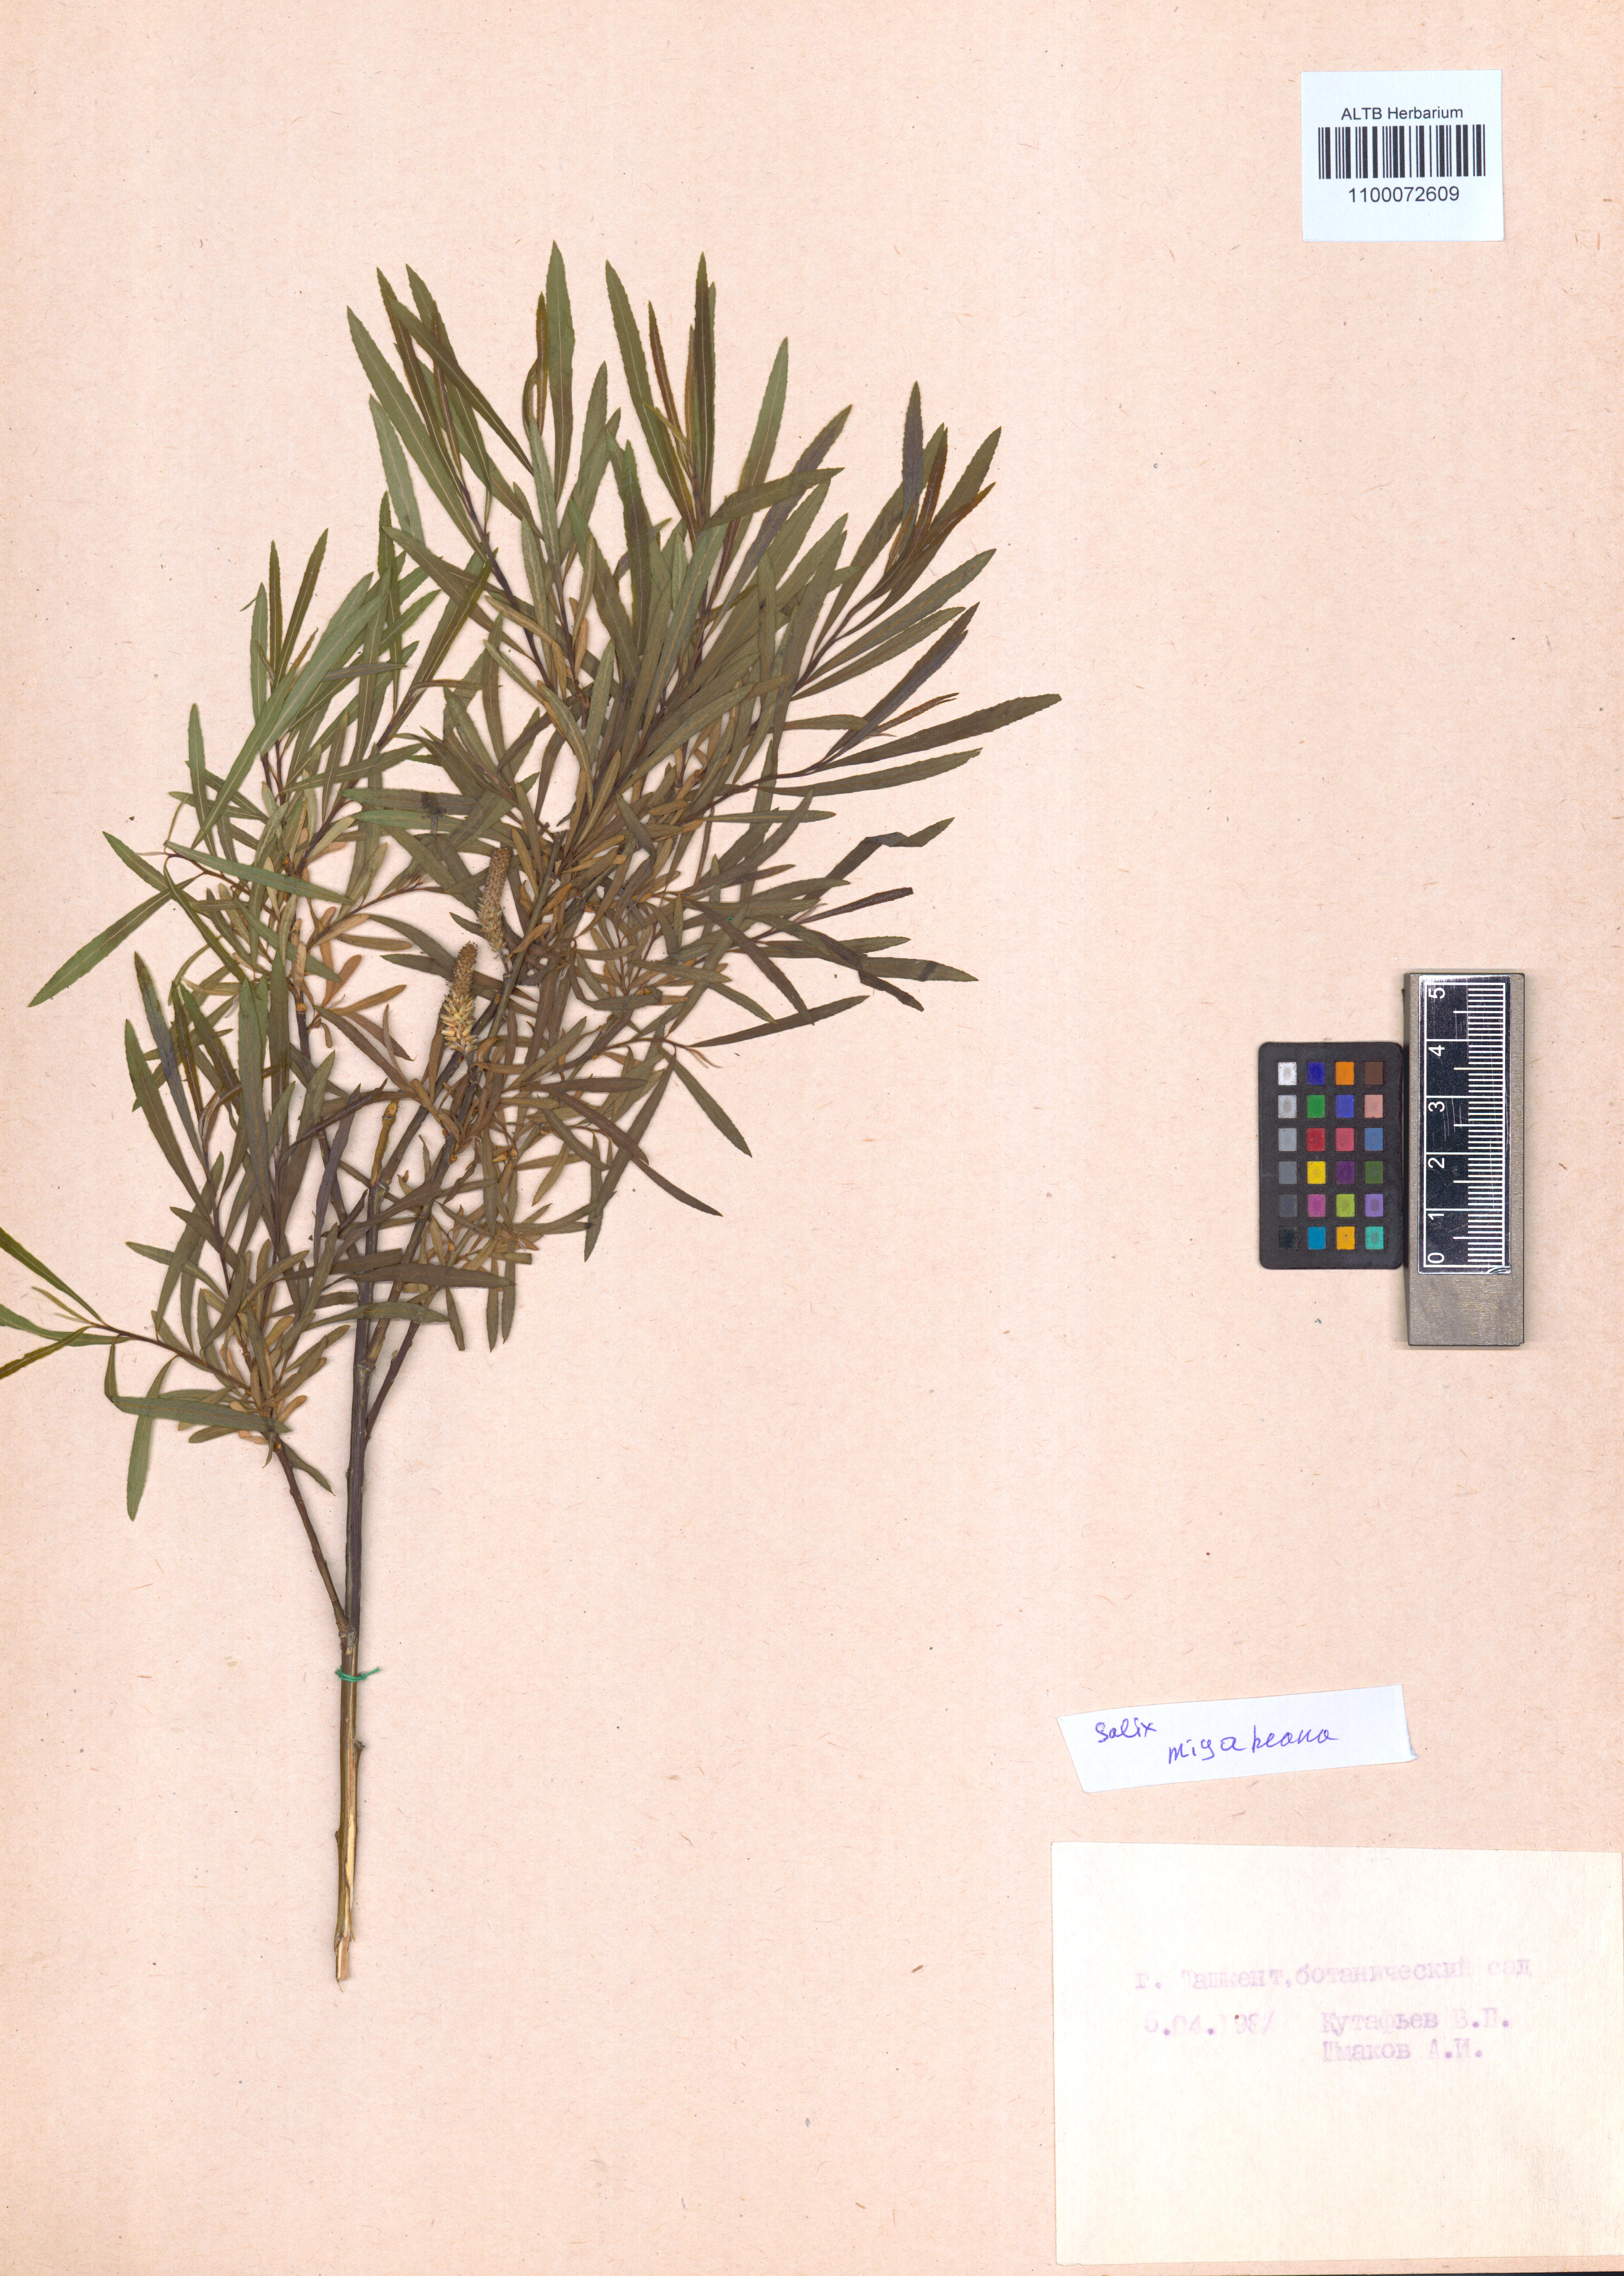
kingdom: Plantae
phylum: Tracheophyta
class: Magnoliopsida
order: Malpighiales
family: Salicaceae
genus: Salix
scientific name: Salix miyabeana
